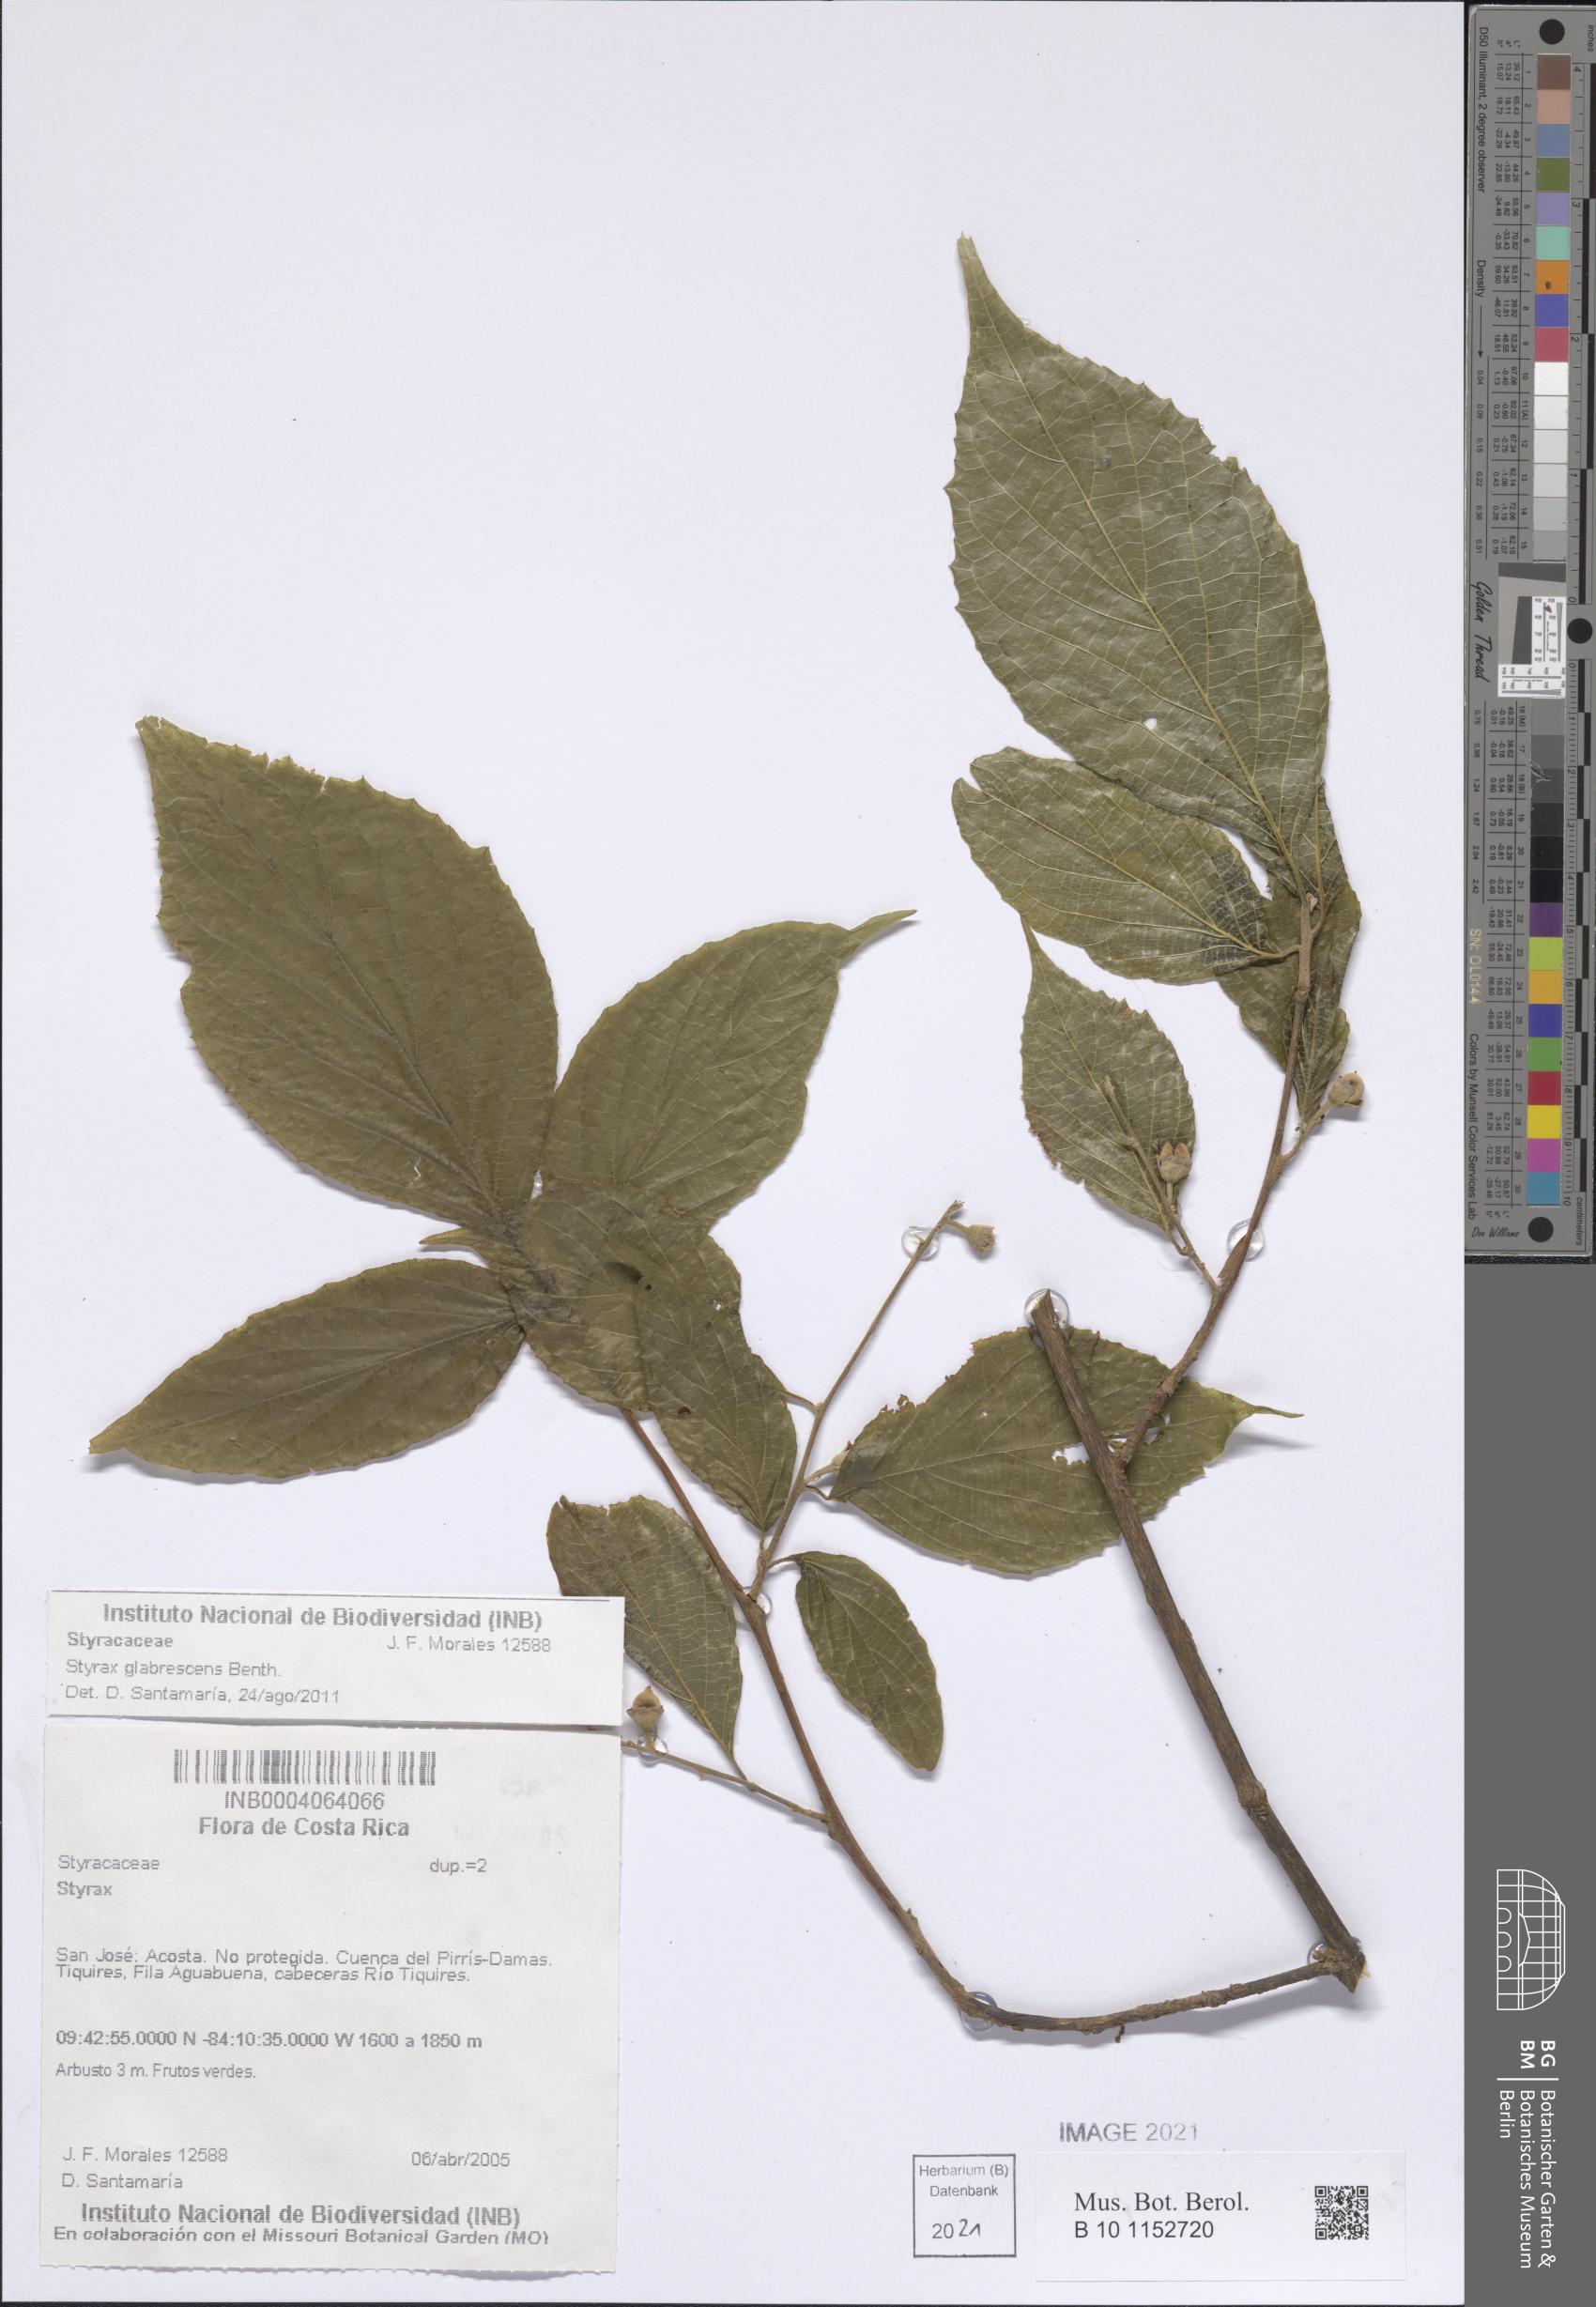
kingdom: Plantae
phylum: Tracheophyta
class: Magnoliopsida
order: Ericales
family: Styracaceae
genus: Styrax
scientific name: Styrax glabrescens
